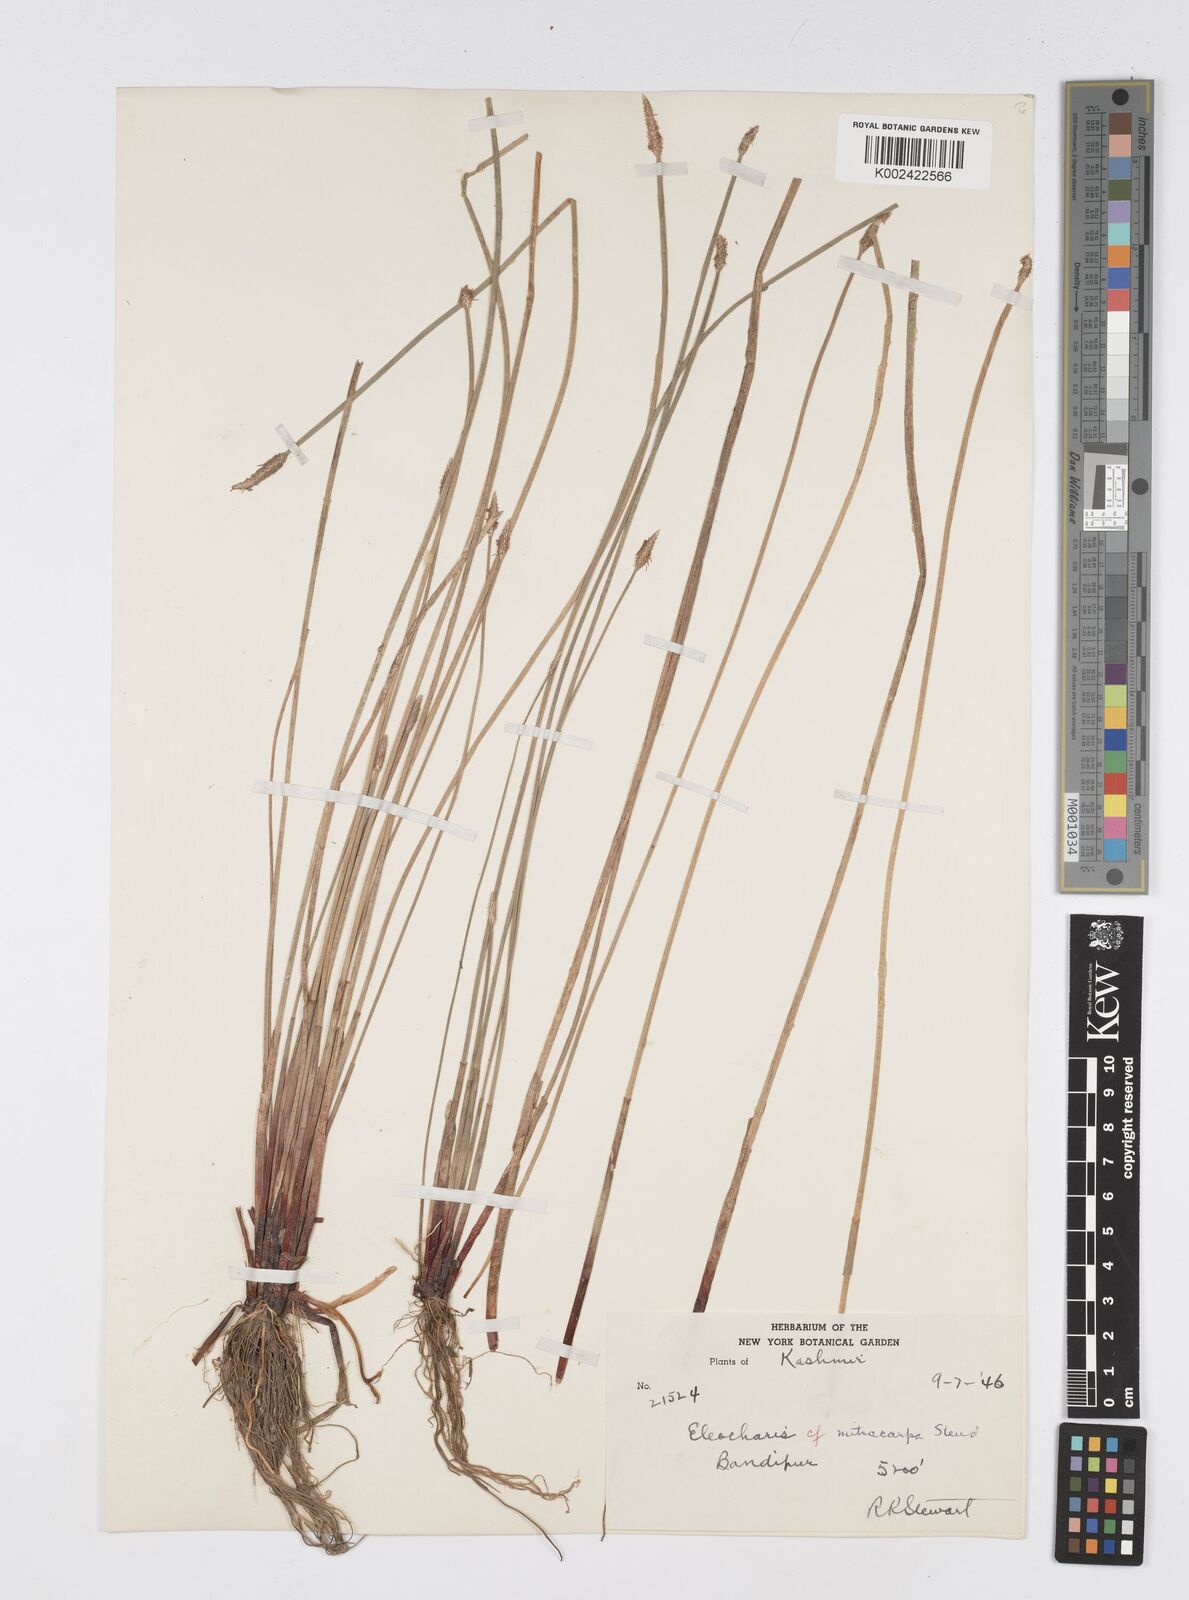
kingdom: Plantae
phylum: Tracheophyta
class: Liliopsida
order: Poales
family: Cyperaceae
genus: Eleocharis
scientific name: Eleocharis mitracarpa
